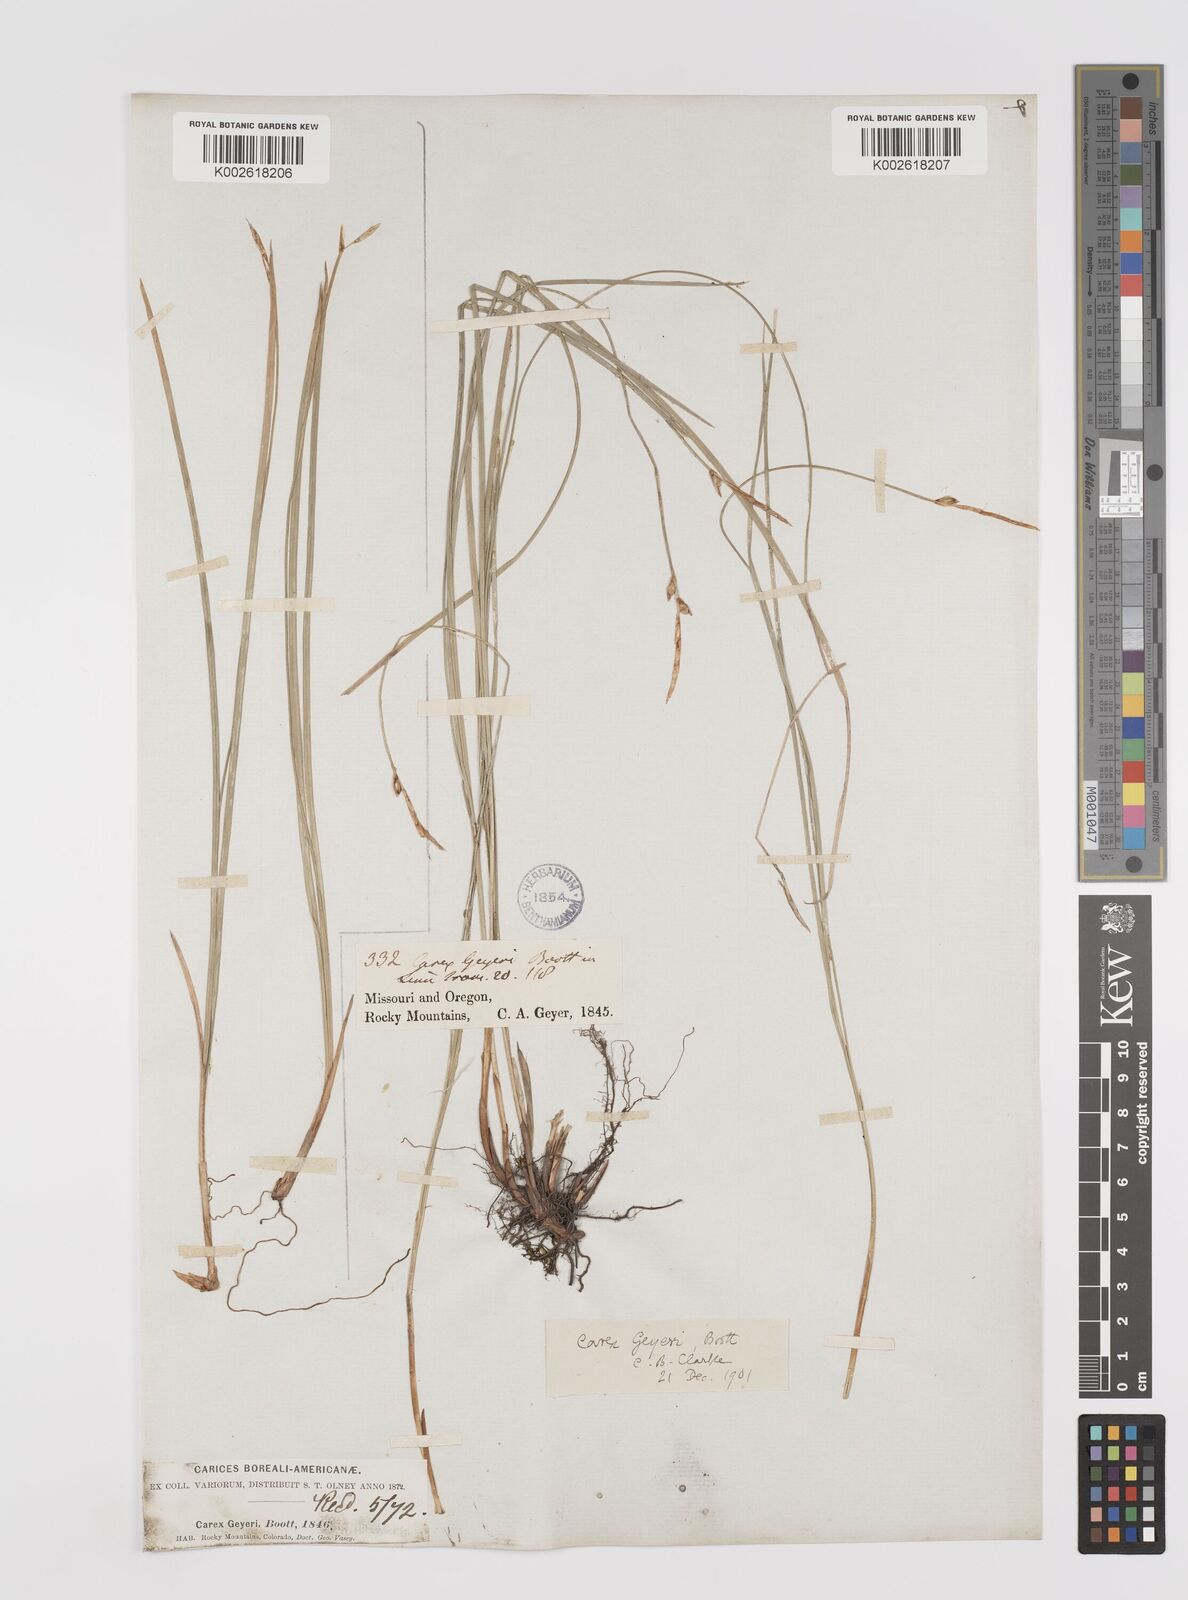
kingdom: Plantae
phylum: Tracheophyta
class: Liliopsida
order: Poales
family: Cyperaceae
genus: Carex
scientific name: Carex geyeri
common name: Elk sedge
